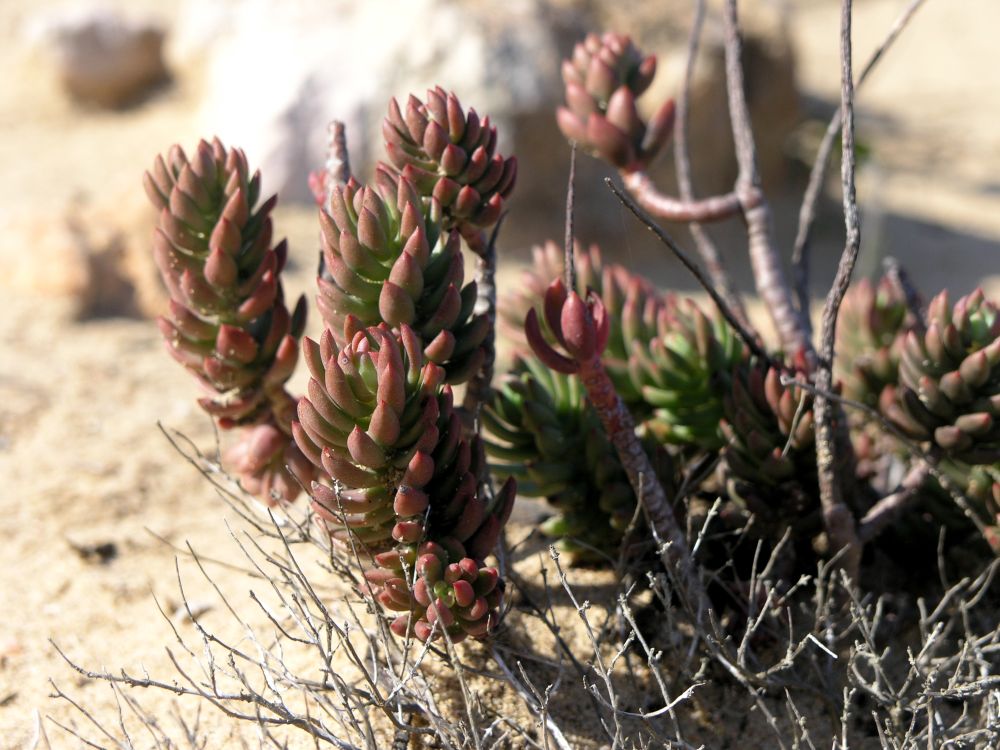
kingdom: Plantae
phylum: Tracheophyta
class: Magnoliopsida
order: Saxifragales
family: Crassulaceae
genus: Petrosedum
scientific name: Petrosedum sediforme
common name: Pale stonecrop
